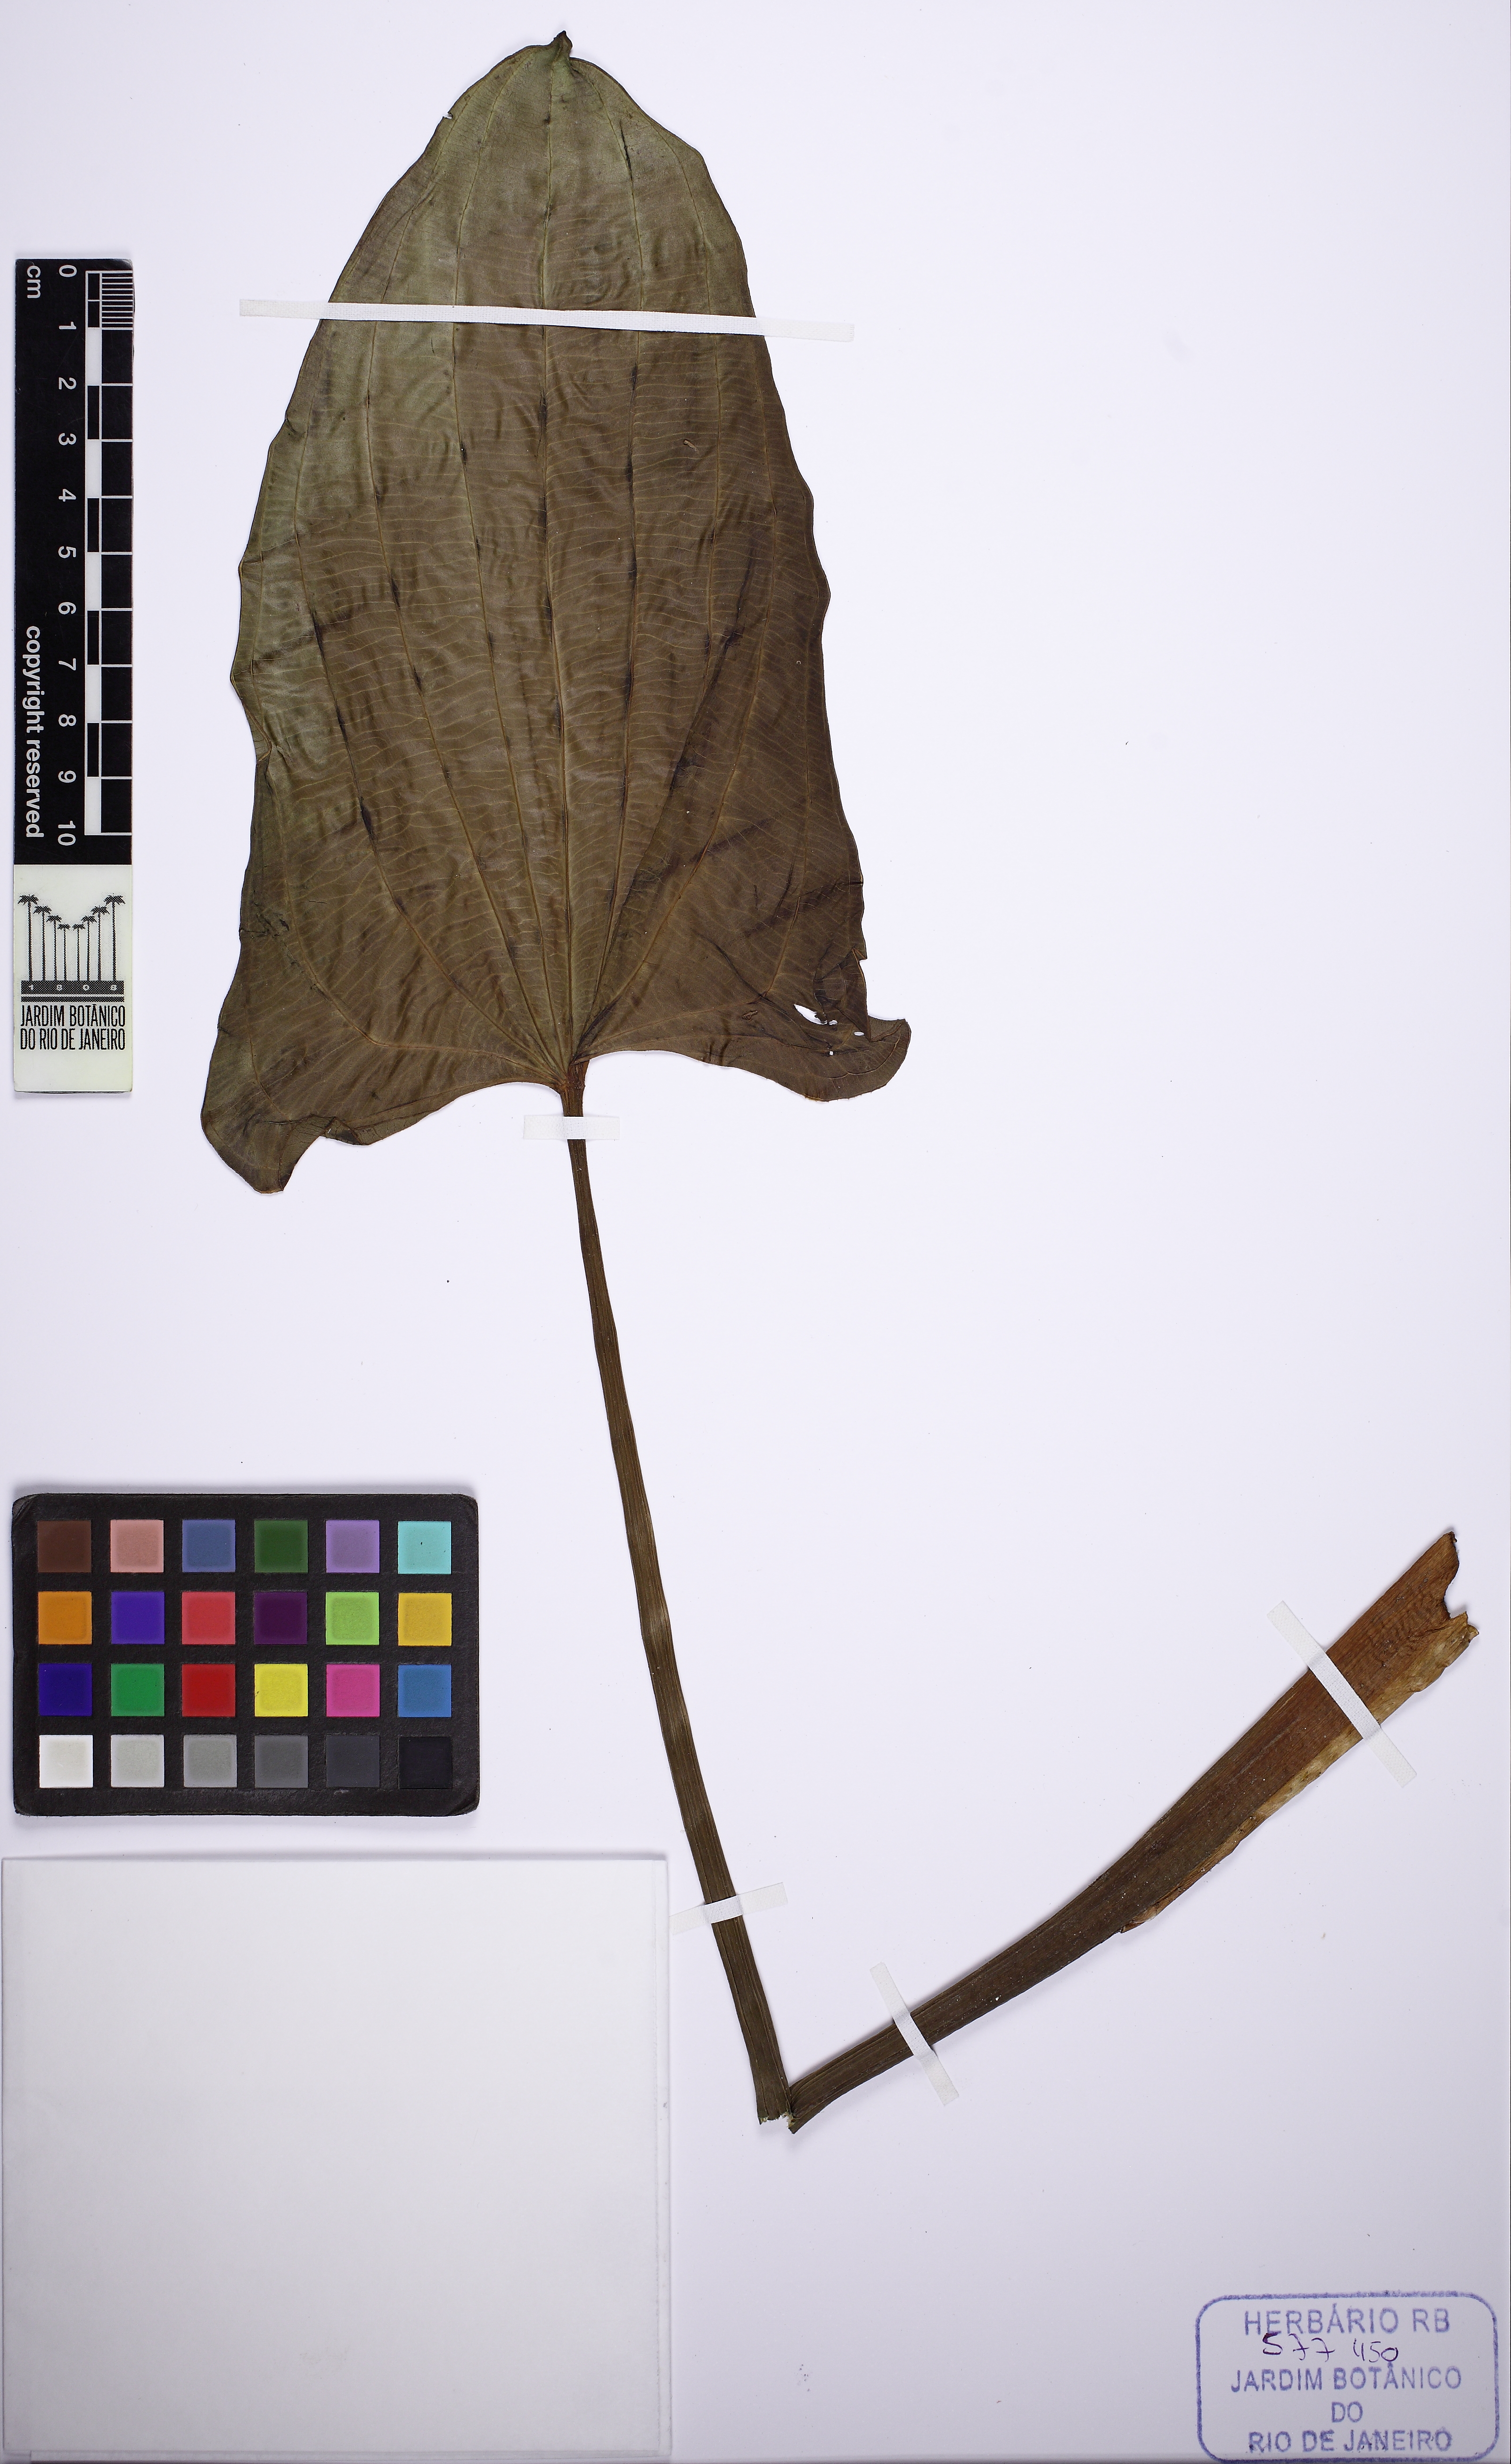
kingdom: Plantae
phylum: Tracheophyta
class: Liliopsida
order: Alismatales
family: Alismataceae
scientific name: Alismataceae
